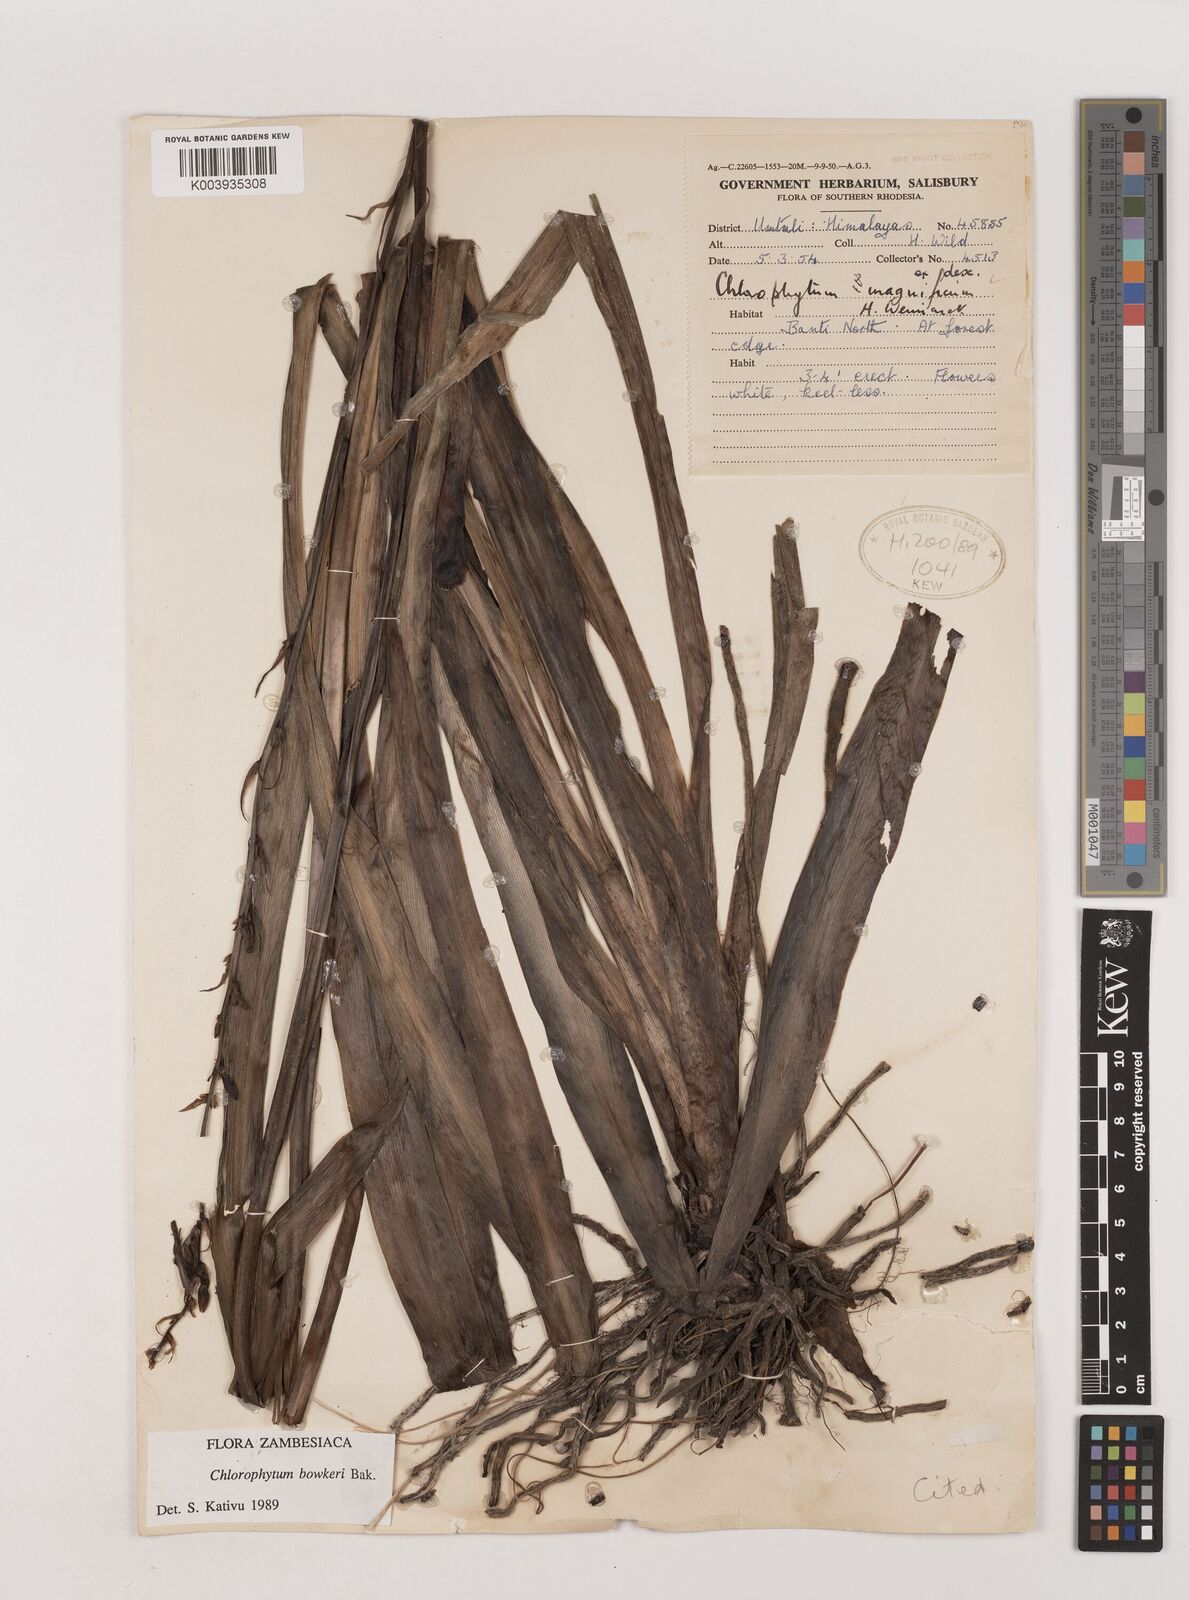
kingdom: Plantae
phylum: Tracheophyta
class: Liliopsida
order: Asparagales
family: Asparagaceae
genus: Chlorophytum
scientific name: Chlorophytum bowkeri
